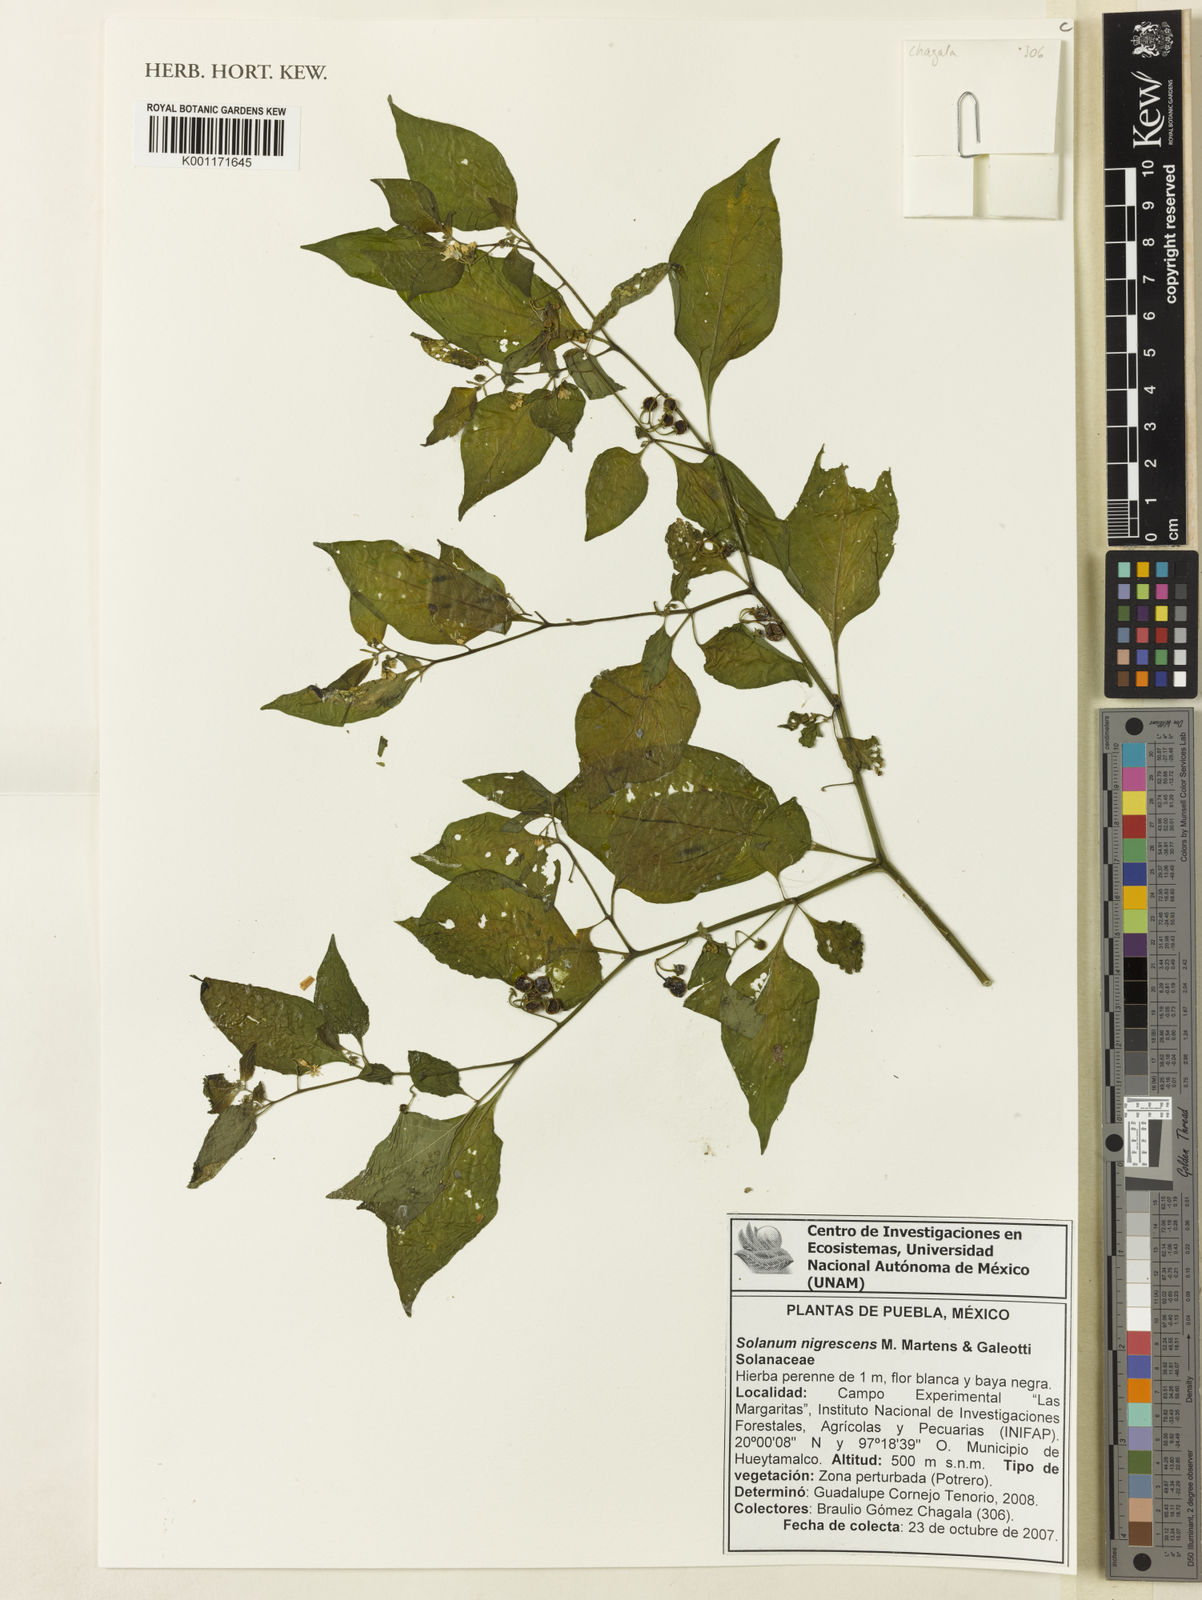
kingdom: Plantae
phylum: Tracheophyta
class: Magnoliopsida
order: Solanales
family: Solanaceae
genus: Solanum
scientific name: Solanum nigrescens
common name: Divine nightshade
